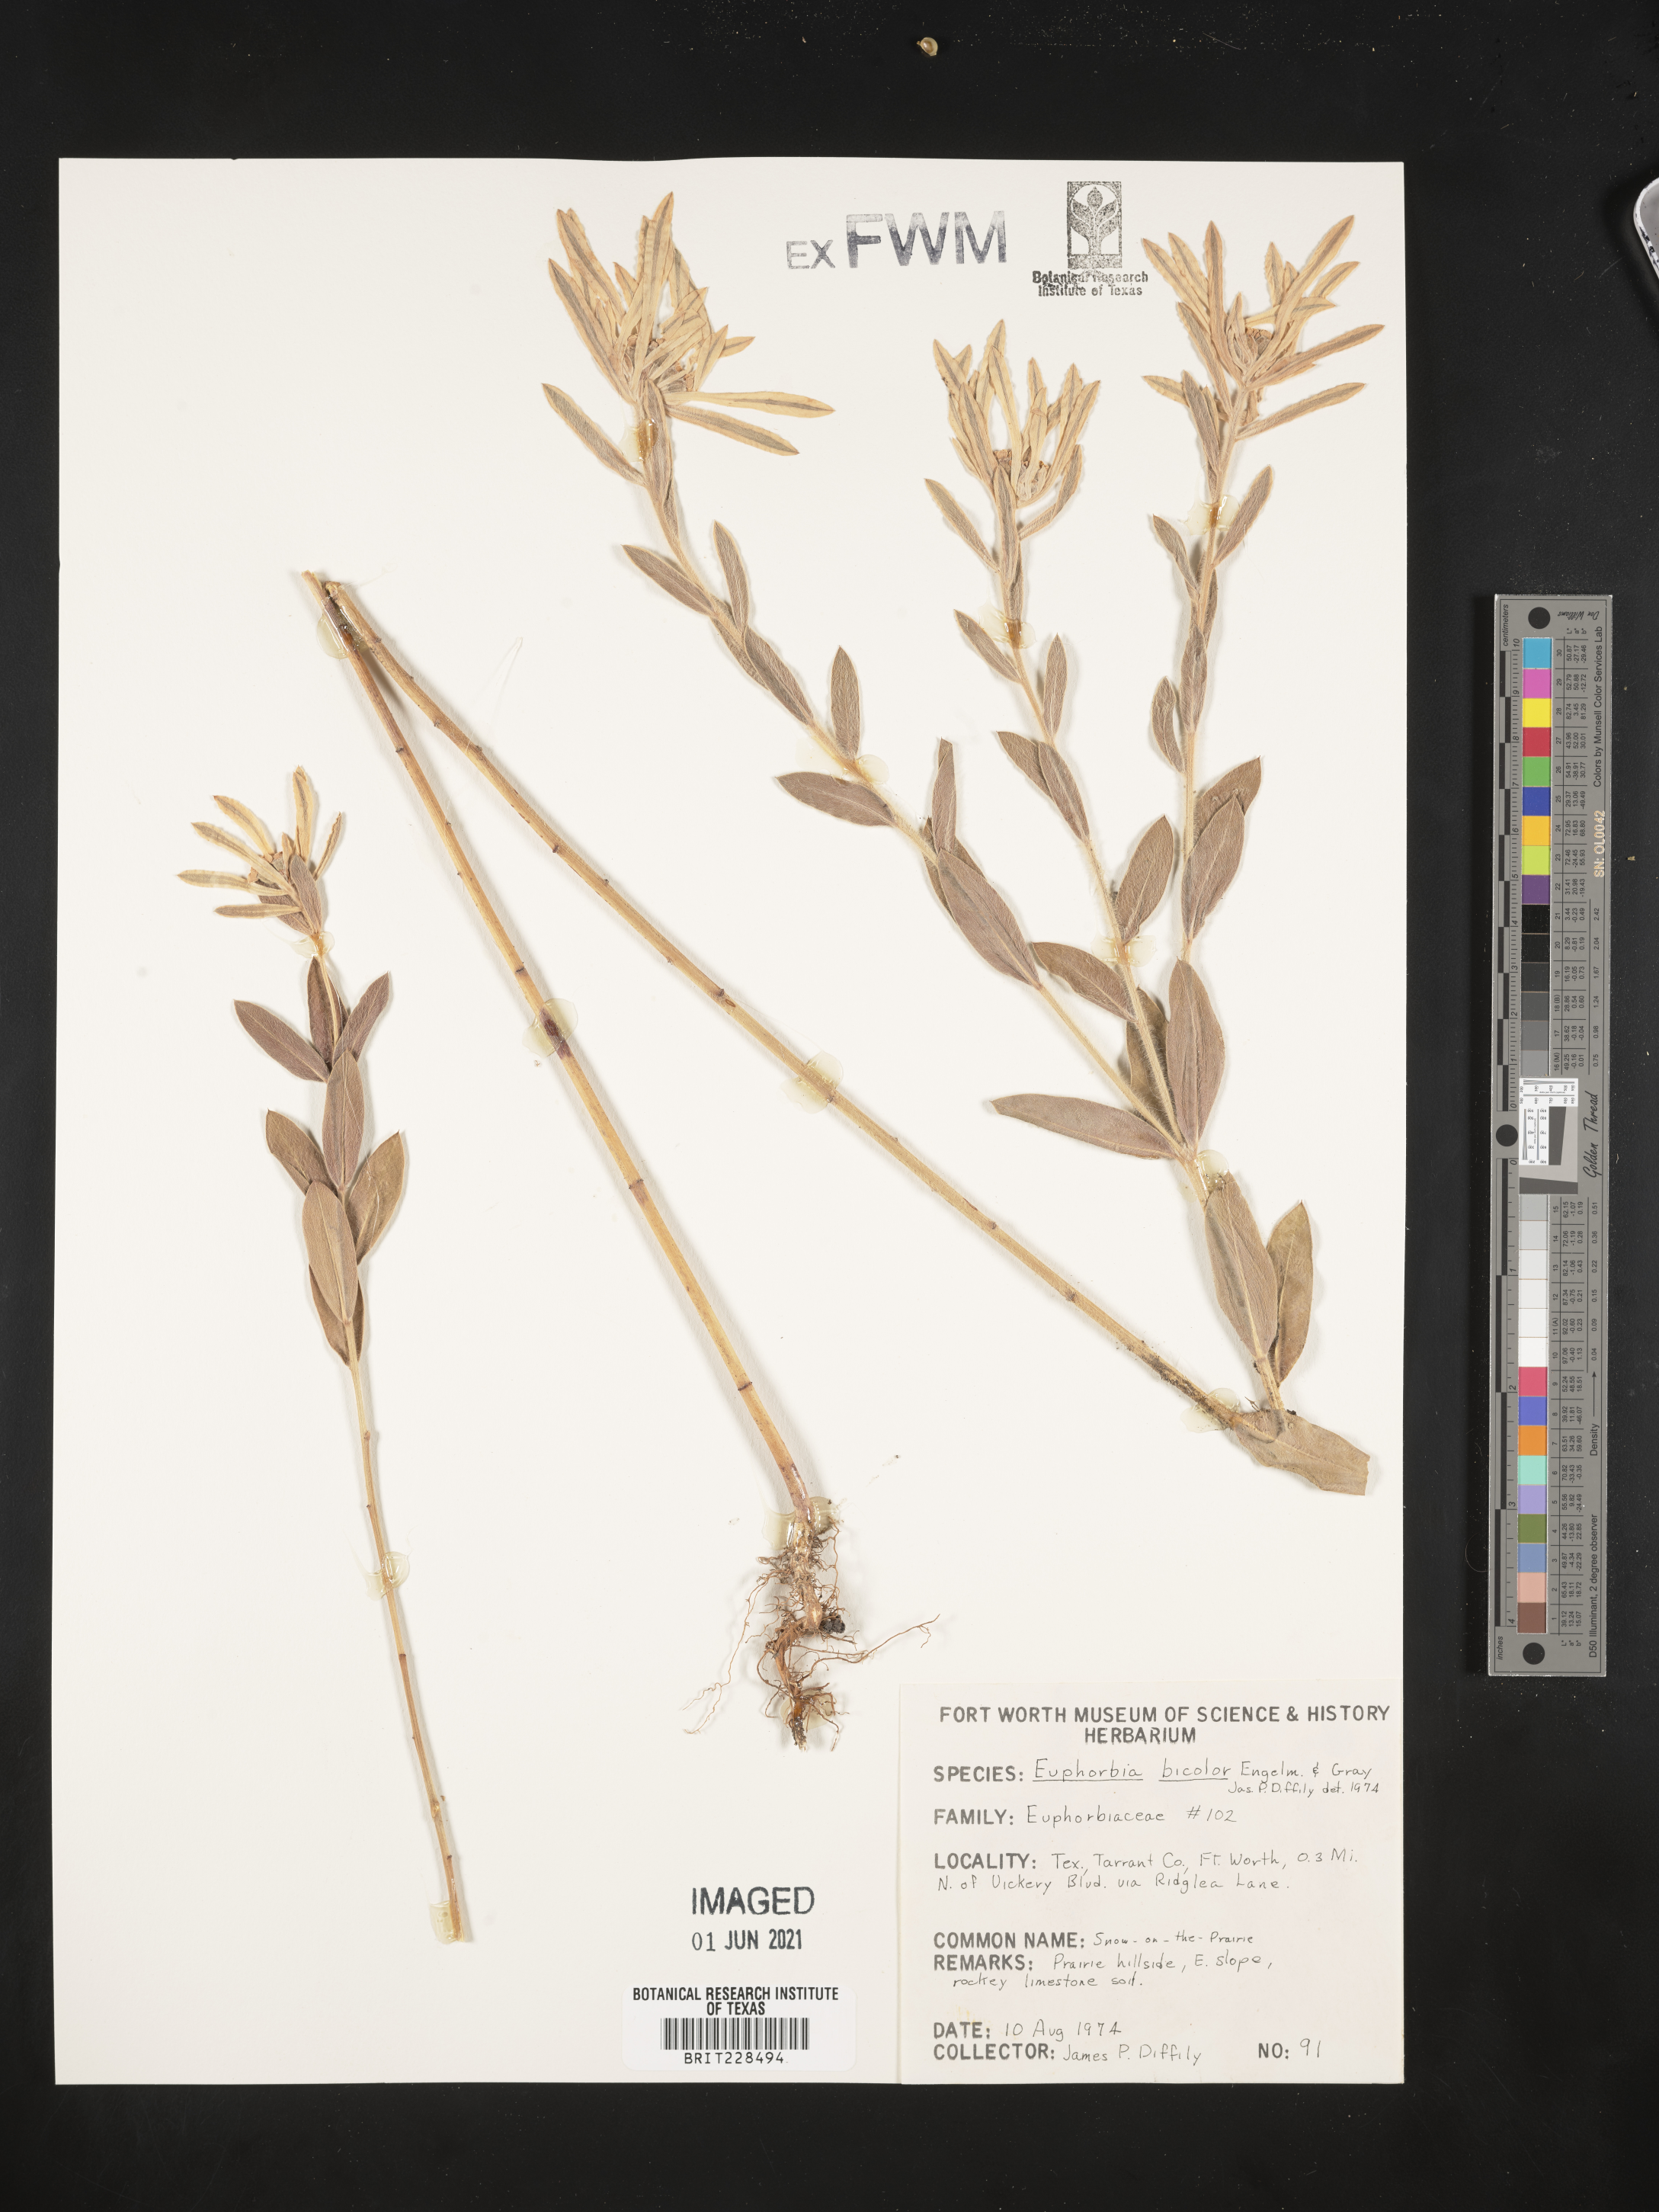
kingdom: Plantae
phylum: Tracheophyta
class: Magnoliopsida
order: Malpighiales
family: Euphorbiaceae
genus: Euphorbia
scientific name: Euphorbia bicolor
